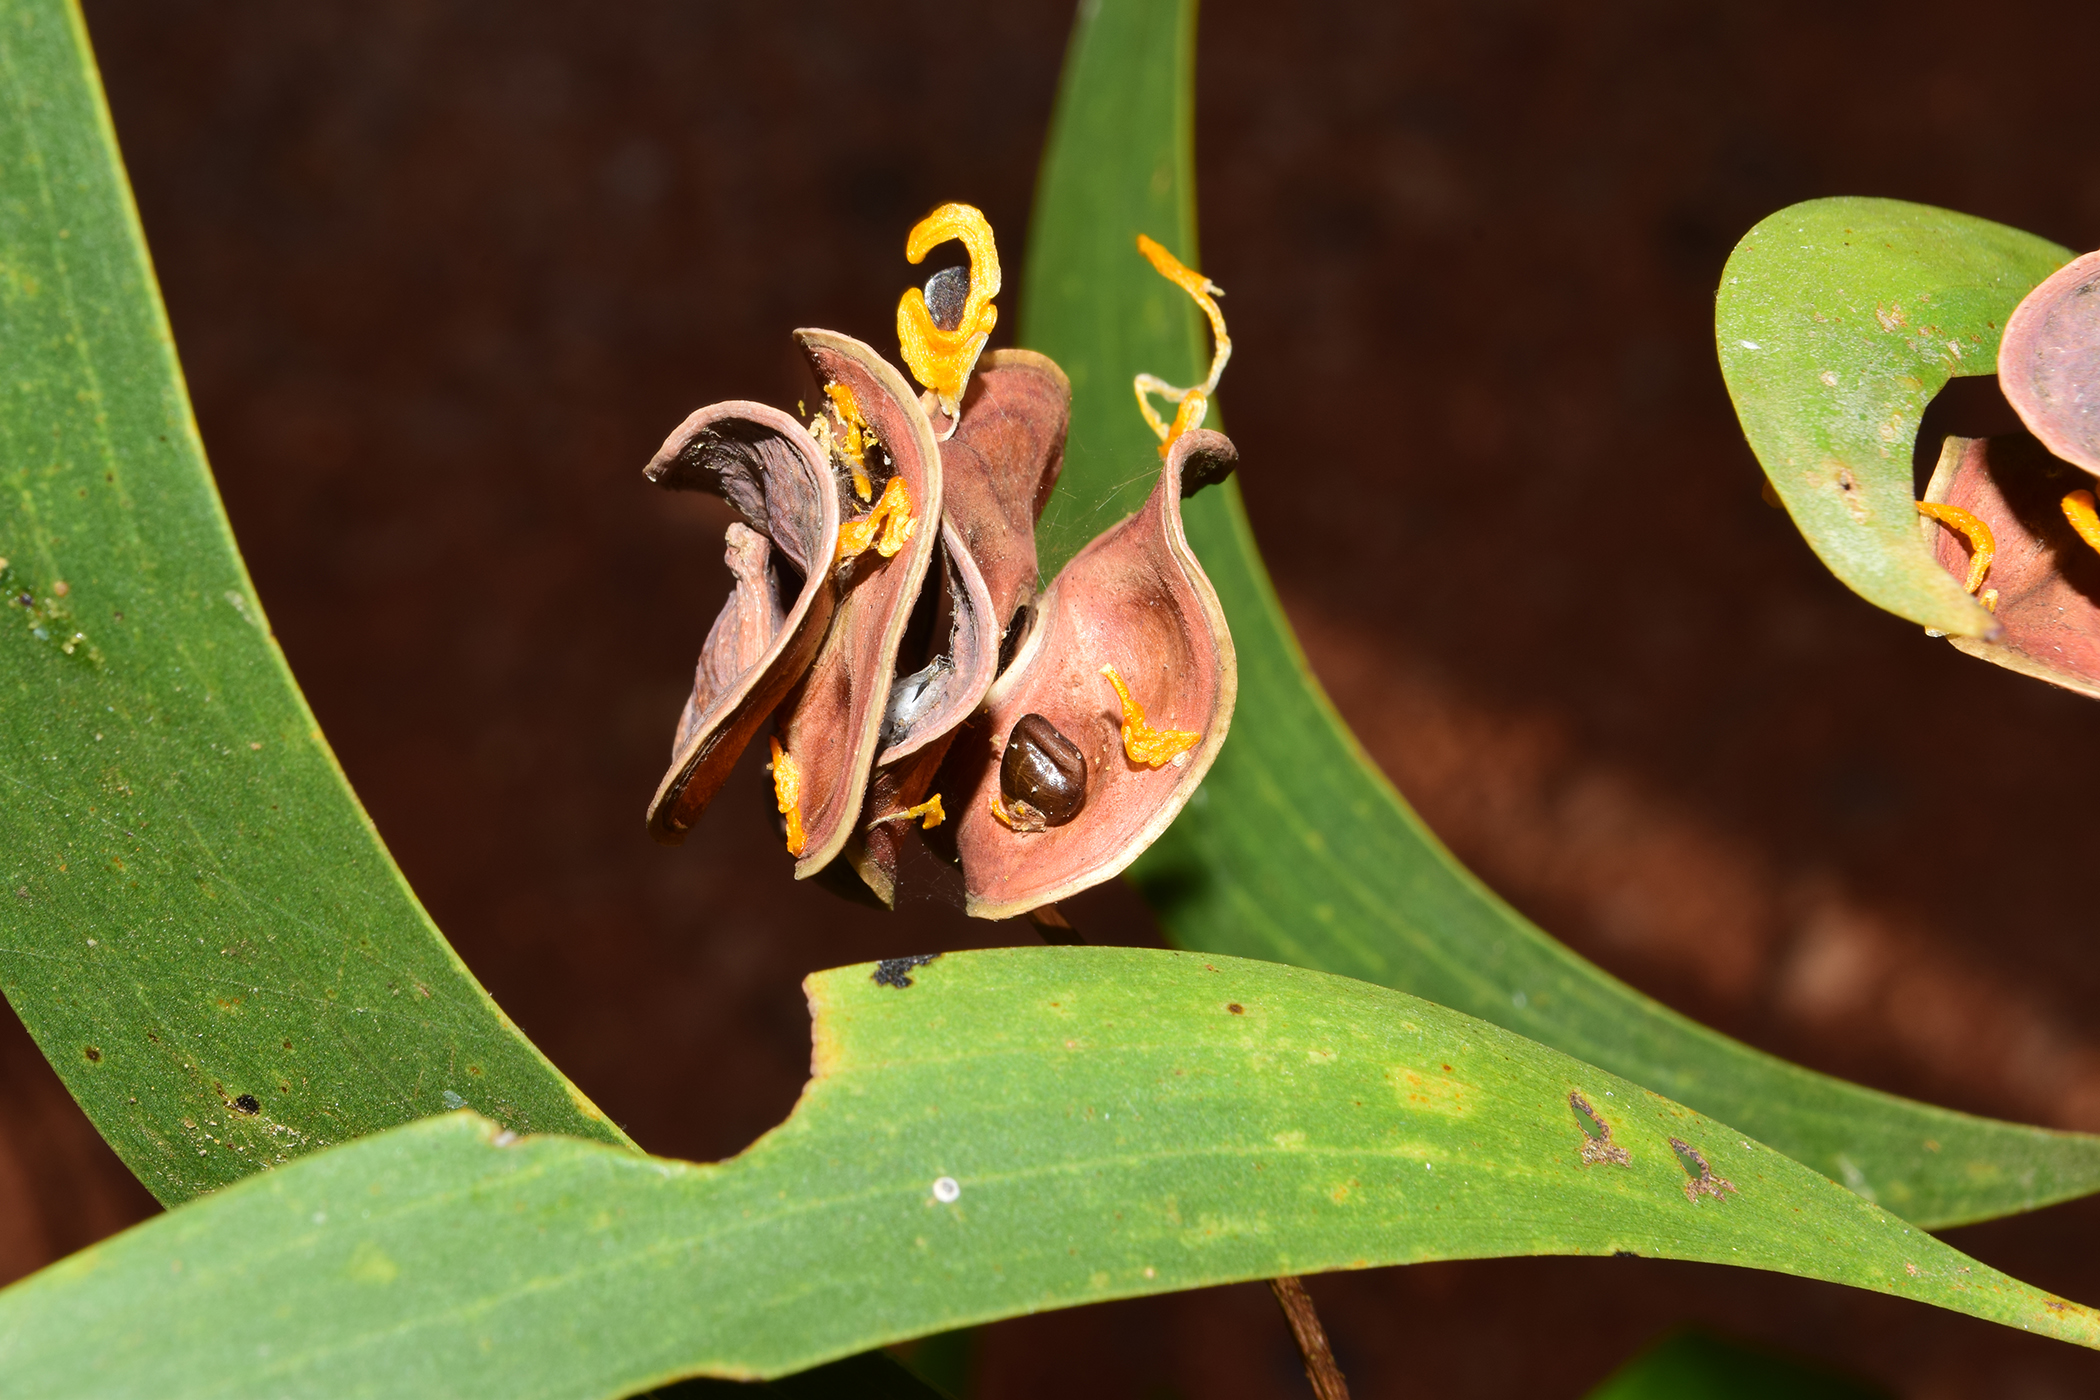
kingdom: Plantae
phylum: Tracheophyta
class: Magnoliopsida
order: Fabales
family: Fabaceae
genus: Acacia
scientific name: Acacia auriculiformis
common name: Earleaf acacia
